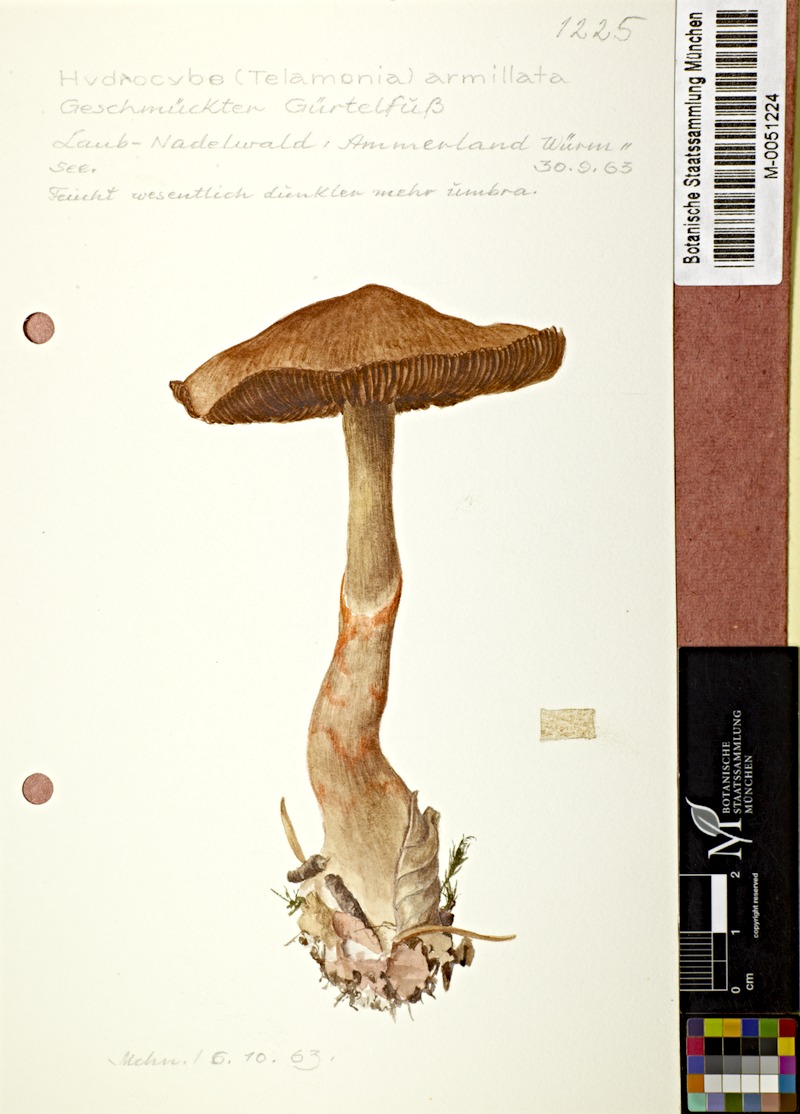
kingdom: Fungi
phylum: Basidiomycota
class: Agaricomycetes
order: Agaricales
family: Cortinariaceae
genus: Cortinarius
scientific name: Cortinarius armillatus
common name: Red banded webcap
